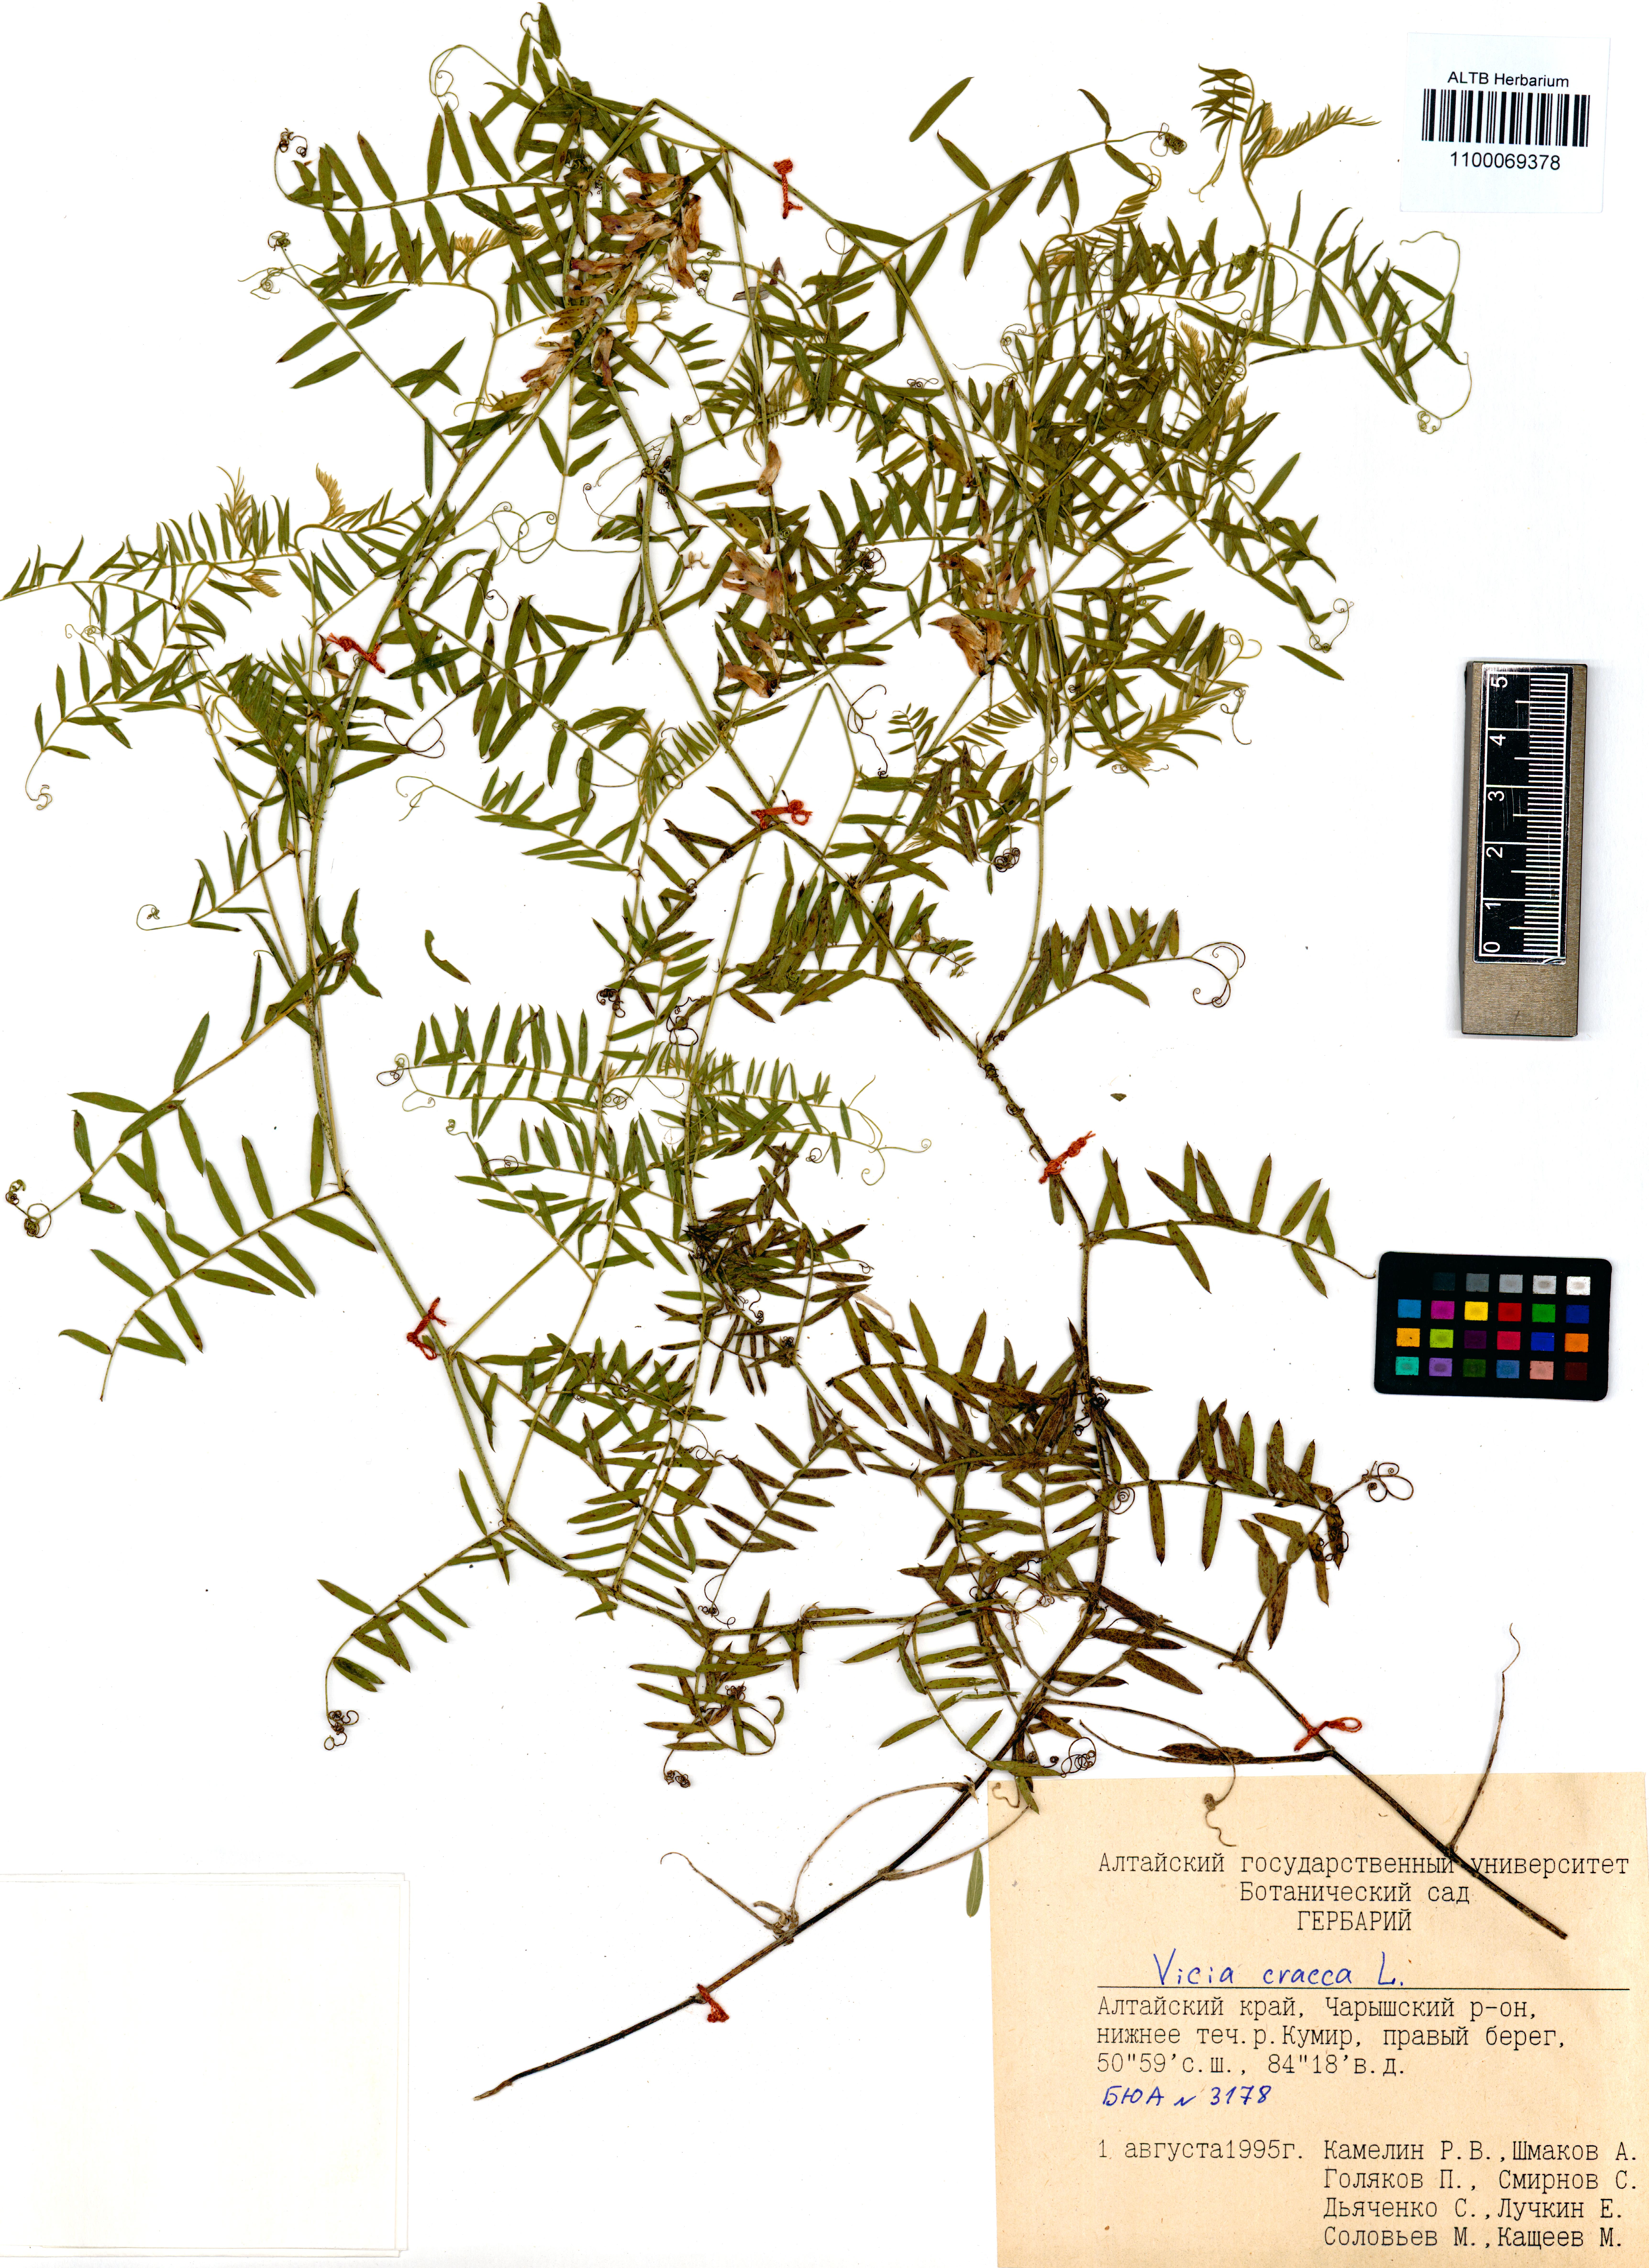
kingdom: Plantae
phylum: Tracheophyta
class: Magnoliopsida
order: Fabales
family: Fabaceae
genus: Vicia
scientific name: Vicia cracca
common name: Bird vetch
